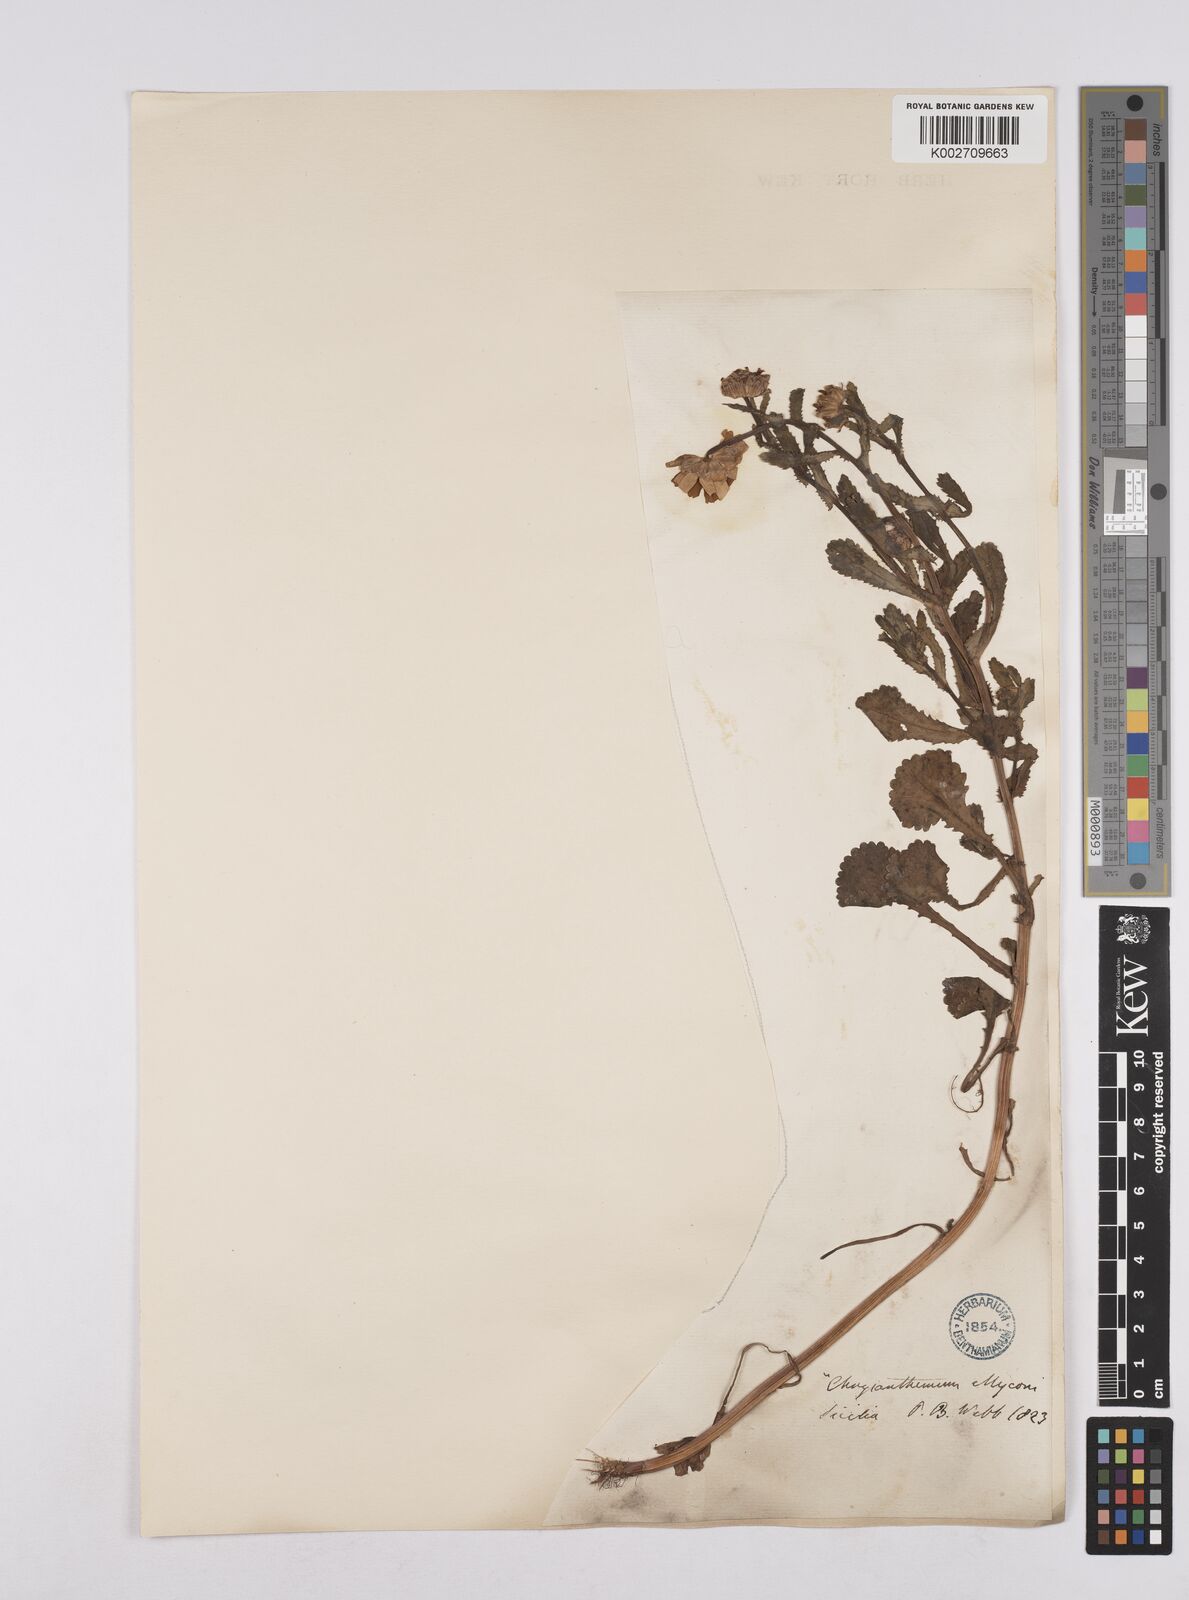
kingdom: Plantae
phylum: Tracheophyta
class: Magnoliopsida
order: Asterales
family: Asteraceae
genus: Coleostephus
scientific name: Coleostephus myconis
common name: Mediterranean marigold
